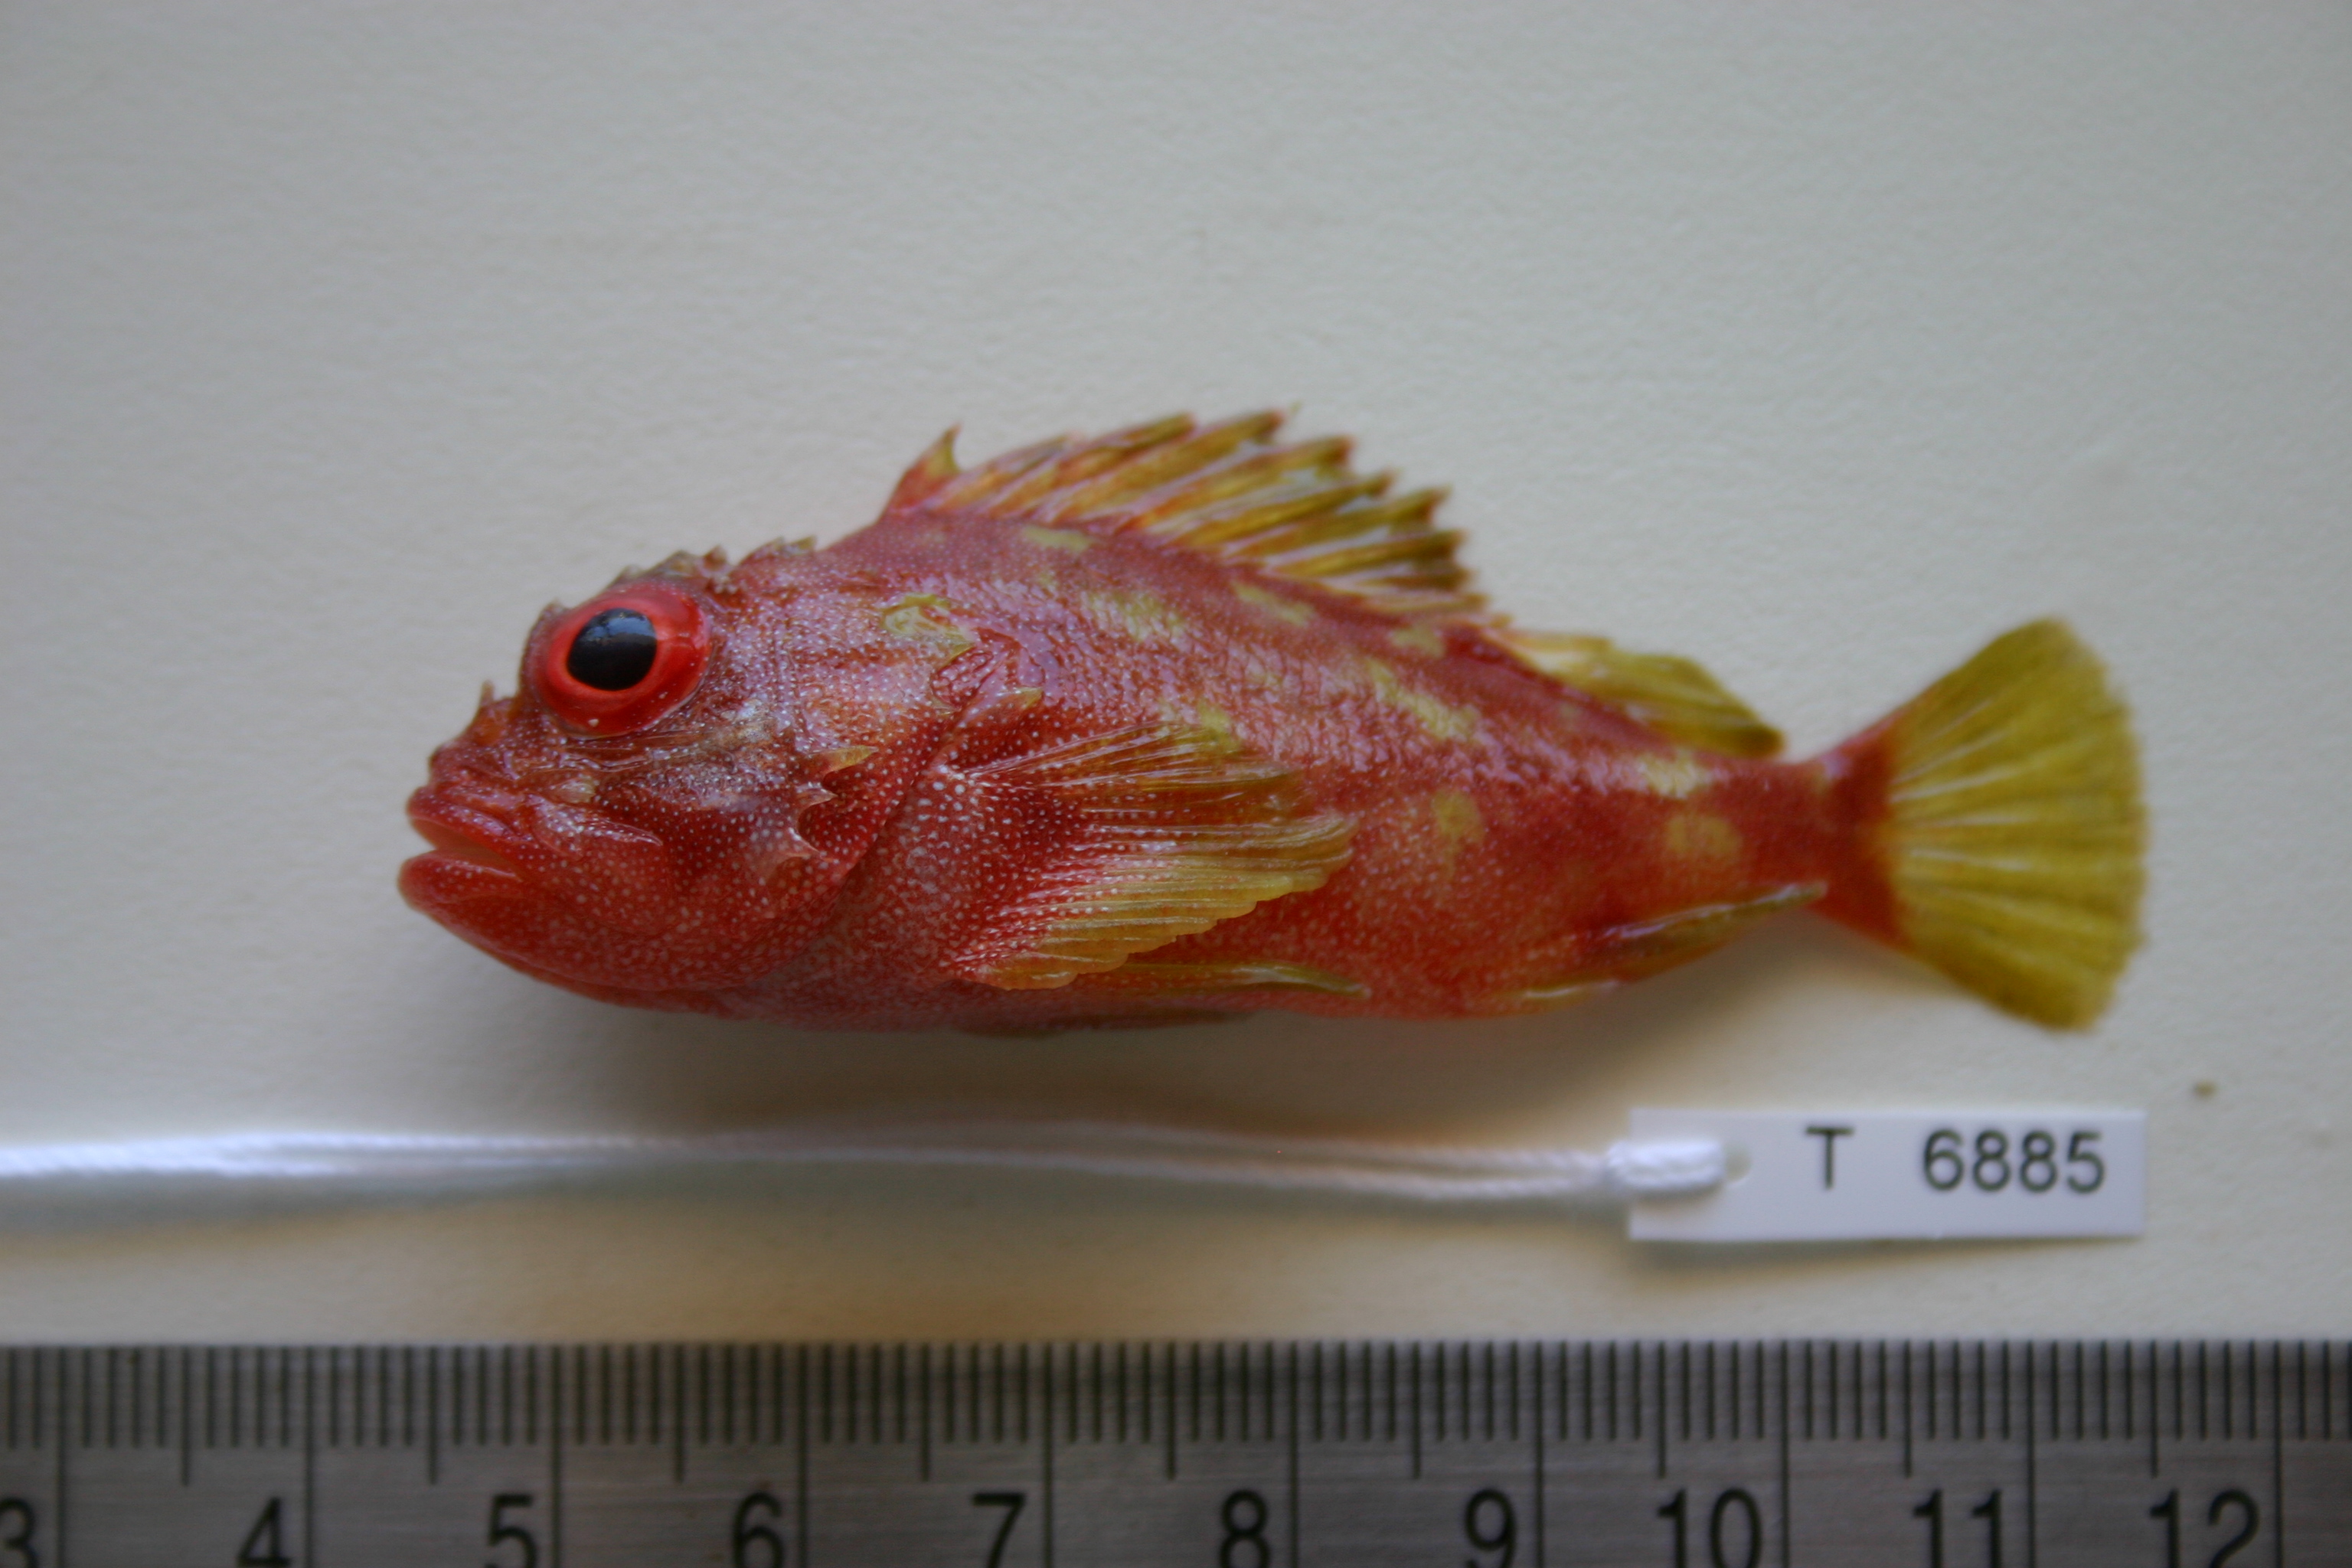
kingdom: Animalia
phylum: Chordata
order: Scorpaeniformes
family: Scorpaenidae
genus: Sebastapistes
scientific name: Sebastapistes cyanostigma
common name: Yellowspotted scorpionfish
